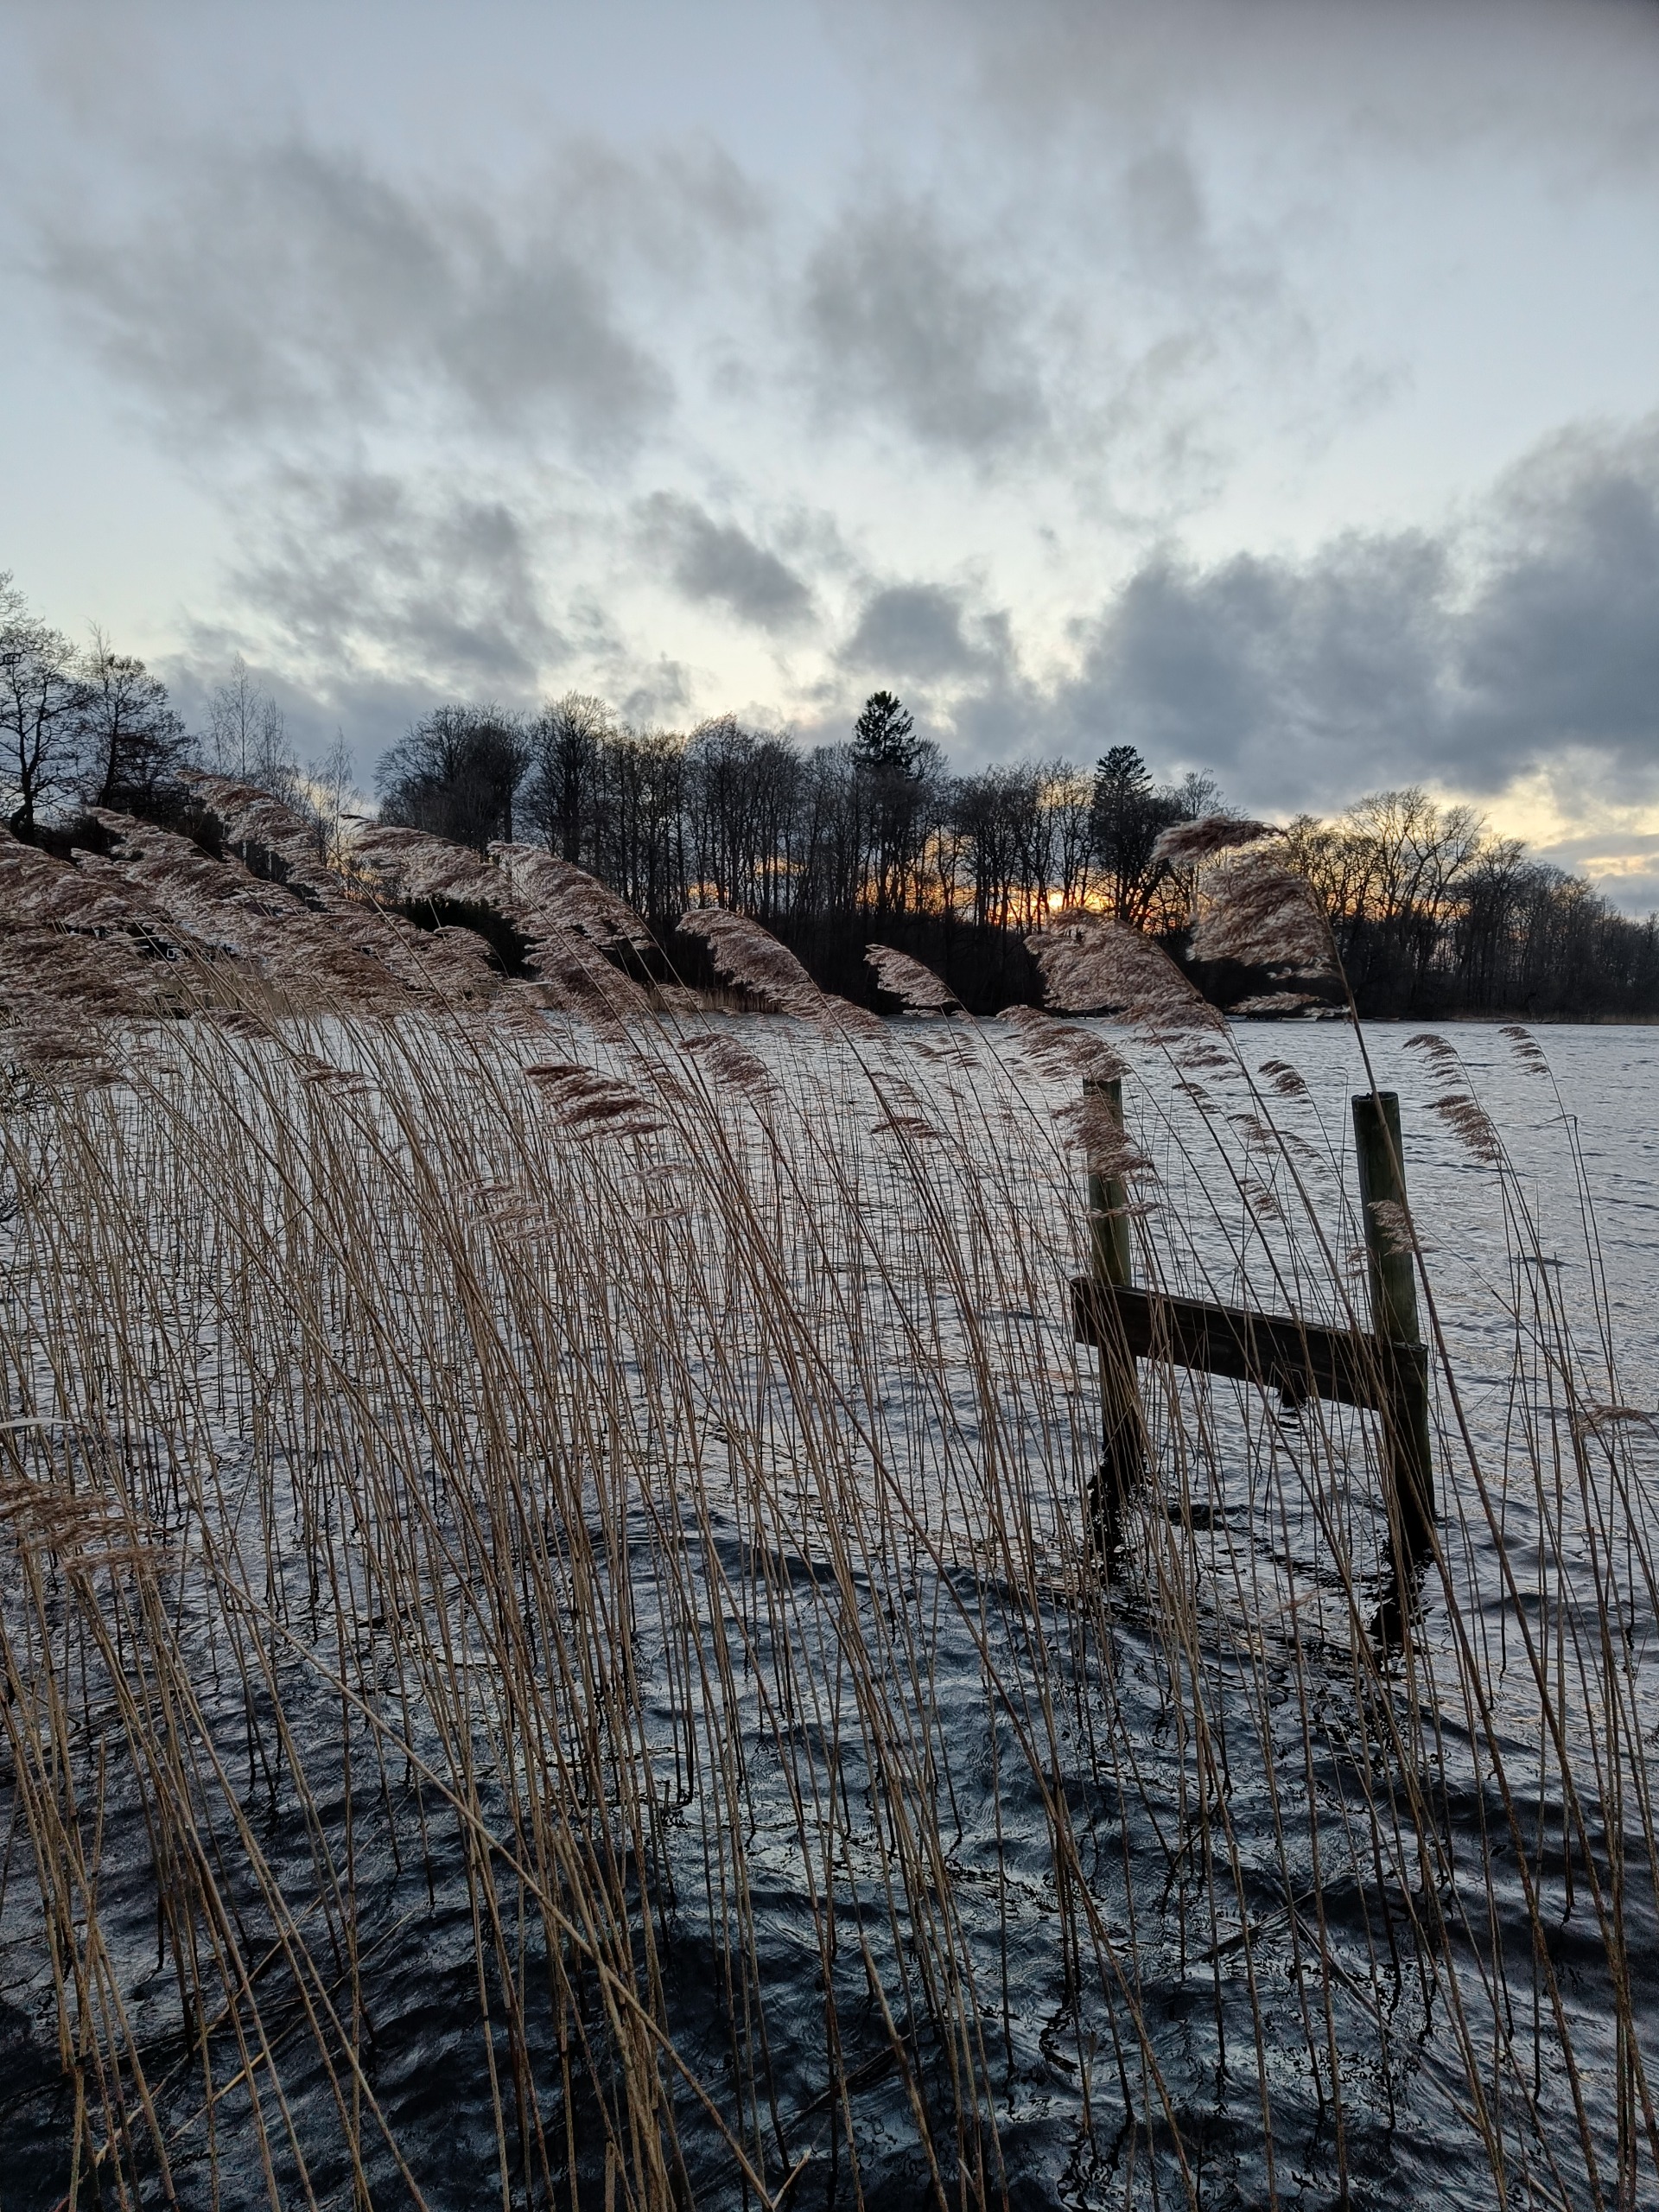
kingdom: Plantae
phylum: Tracheophyta
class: Liliopsida
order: Poales
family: Poaceae
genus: Phragmites
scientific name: Phragmites australis
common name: Tagrør
